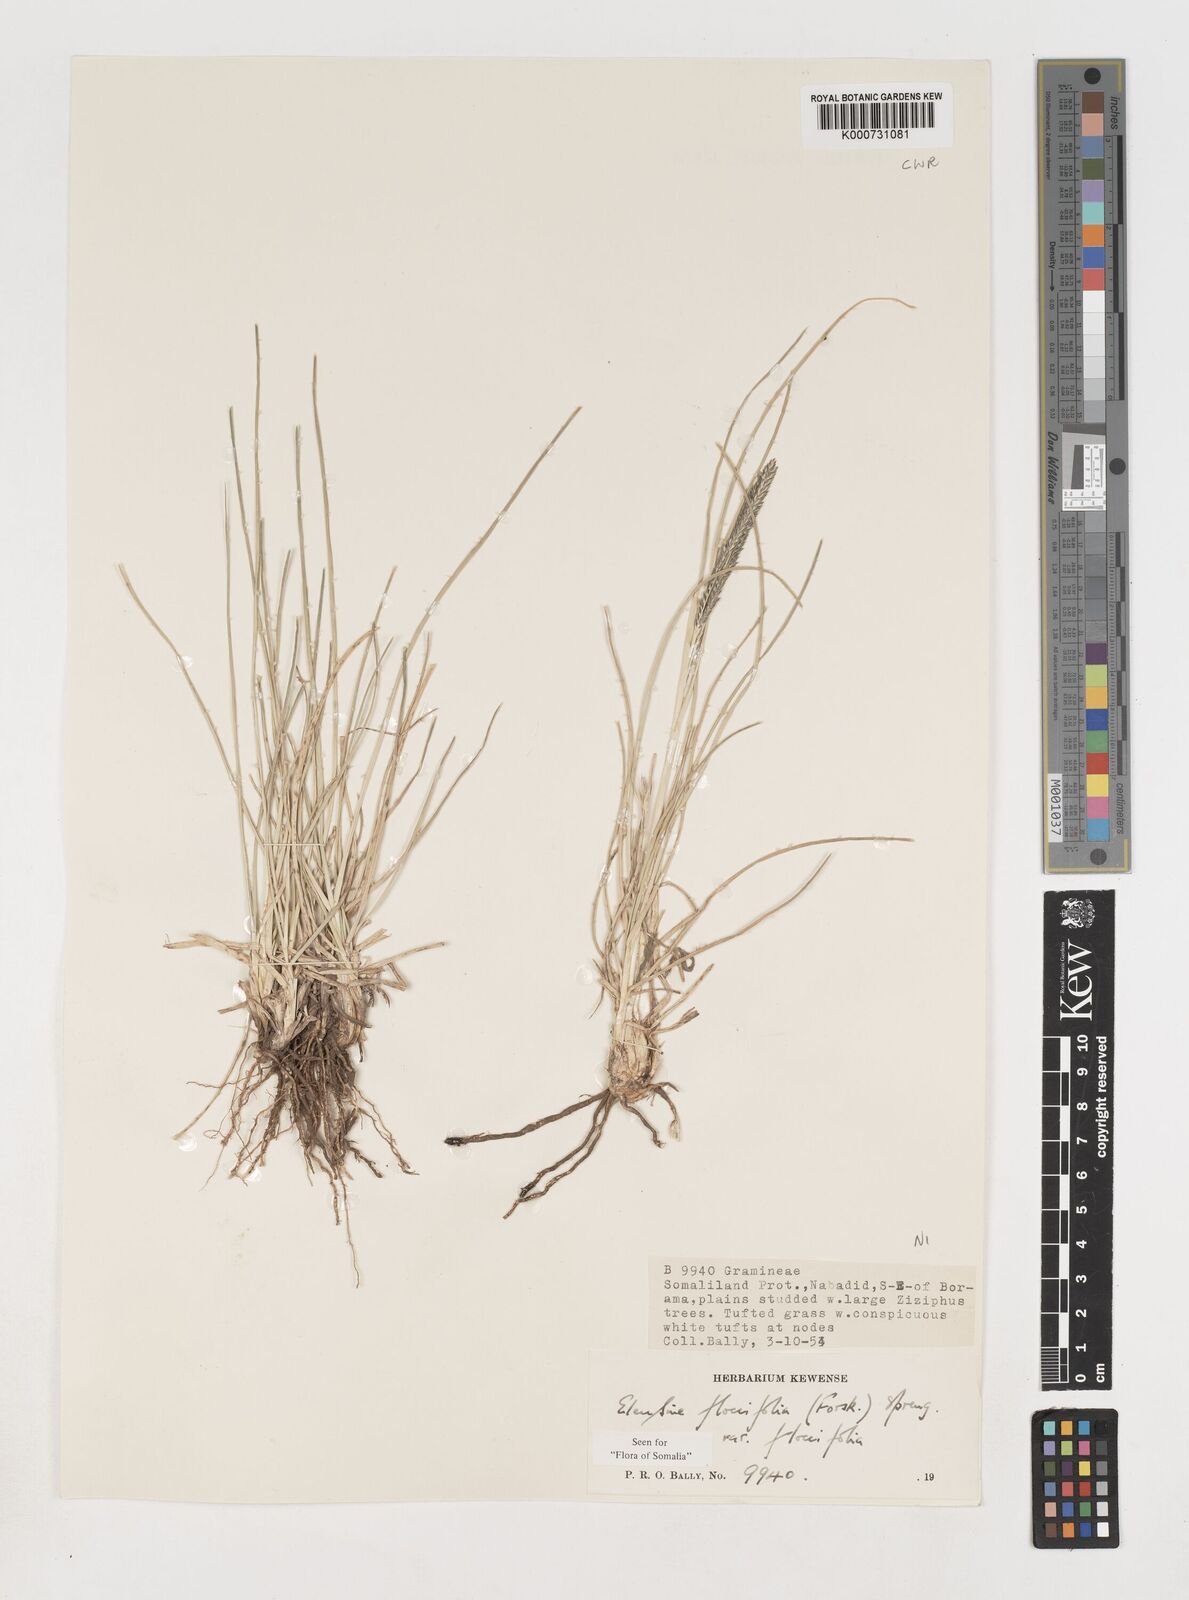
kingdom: Plantae
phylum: Tracheophyta
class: Liliopsida
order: Poales
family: Poaceae
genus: Eleusine
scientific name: Eleusine floccifolia
